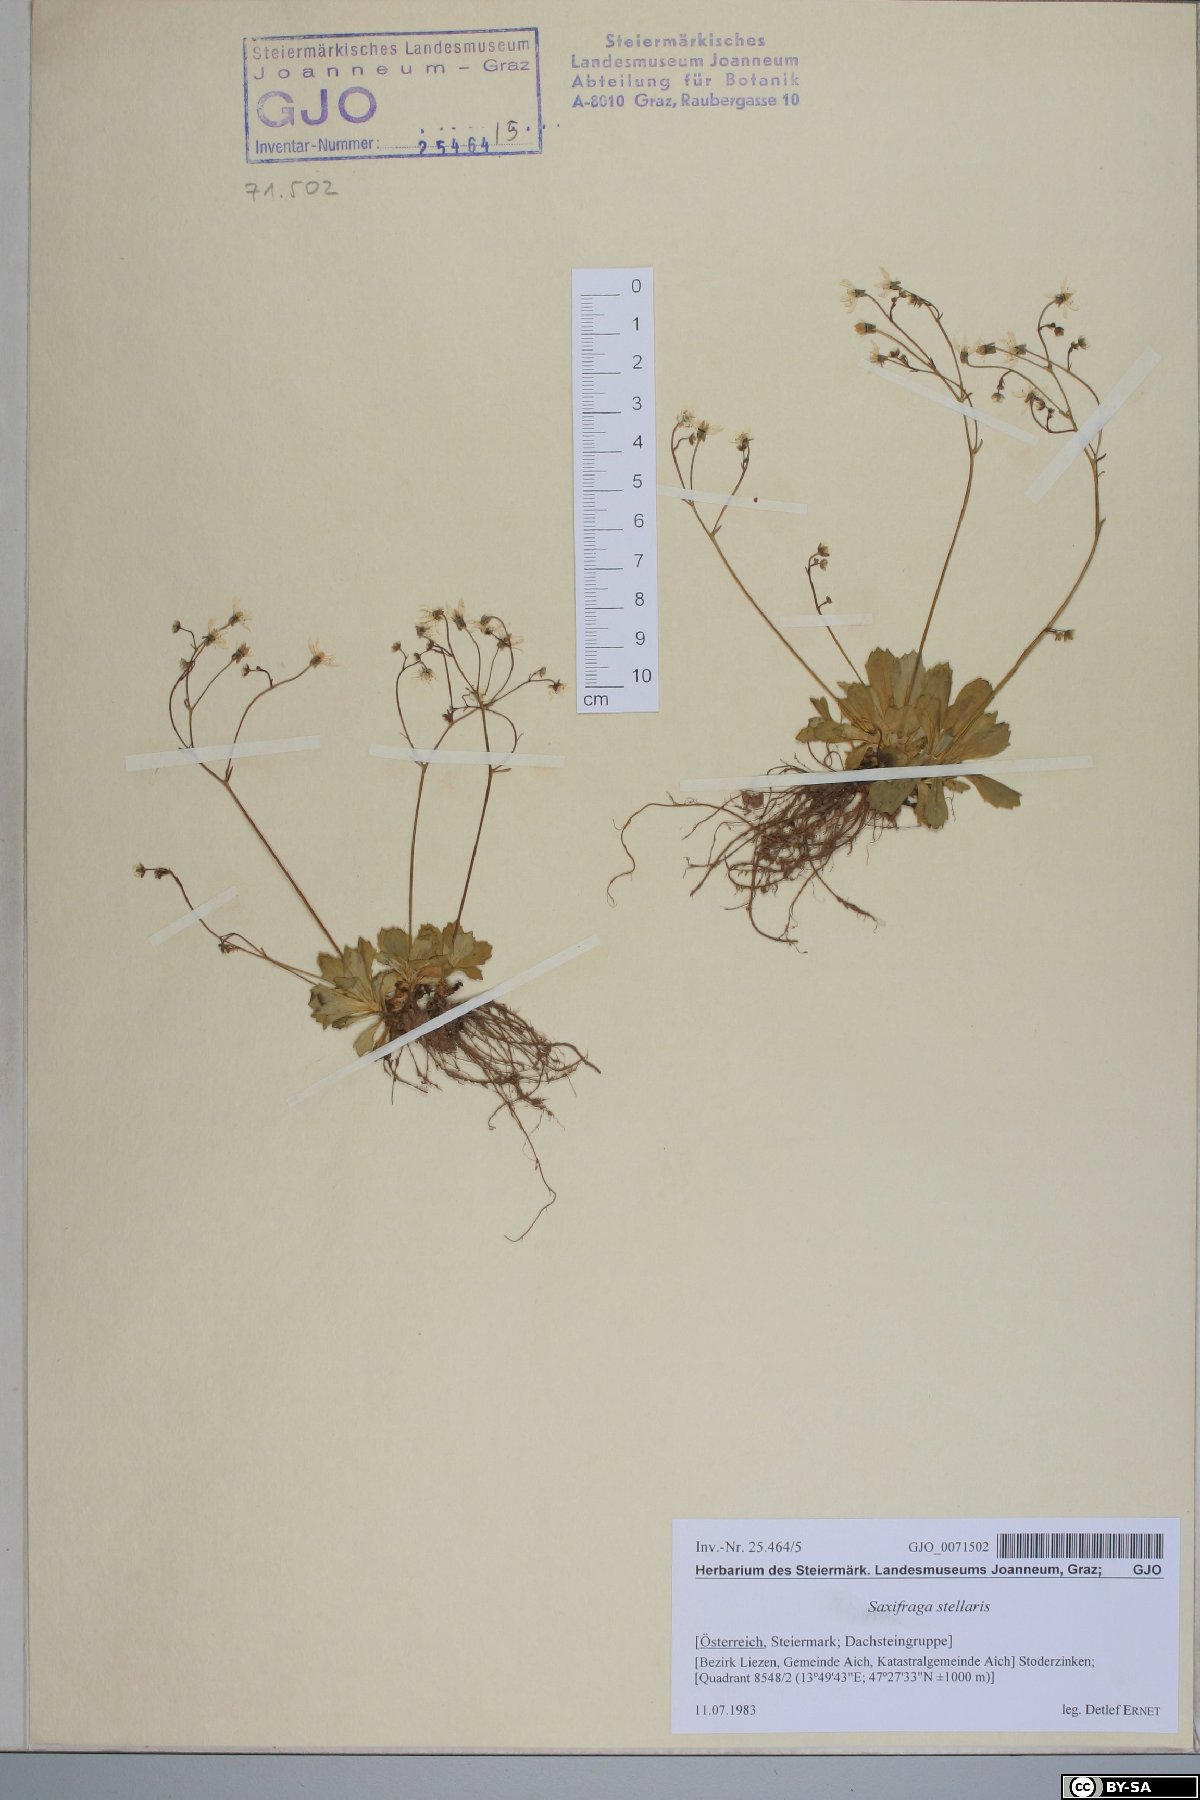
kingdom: Plantae
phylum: Tracheophyta
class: Magnoliopsida
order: Saxifragales
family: Saxifragaceae
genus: Micranthes
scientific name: Micranthes stellaris
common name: Starry saxifrage
